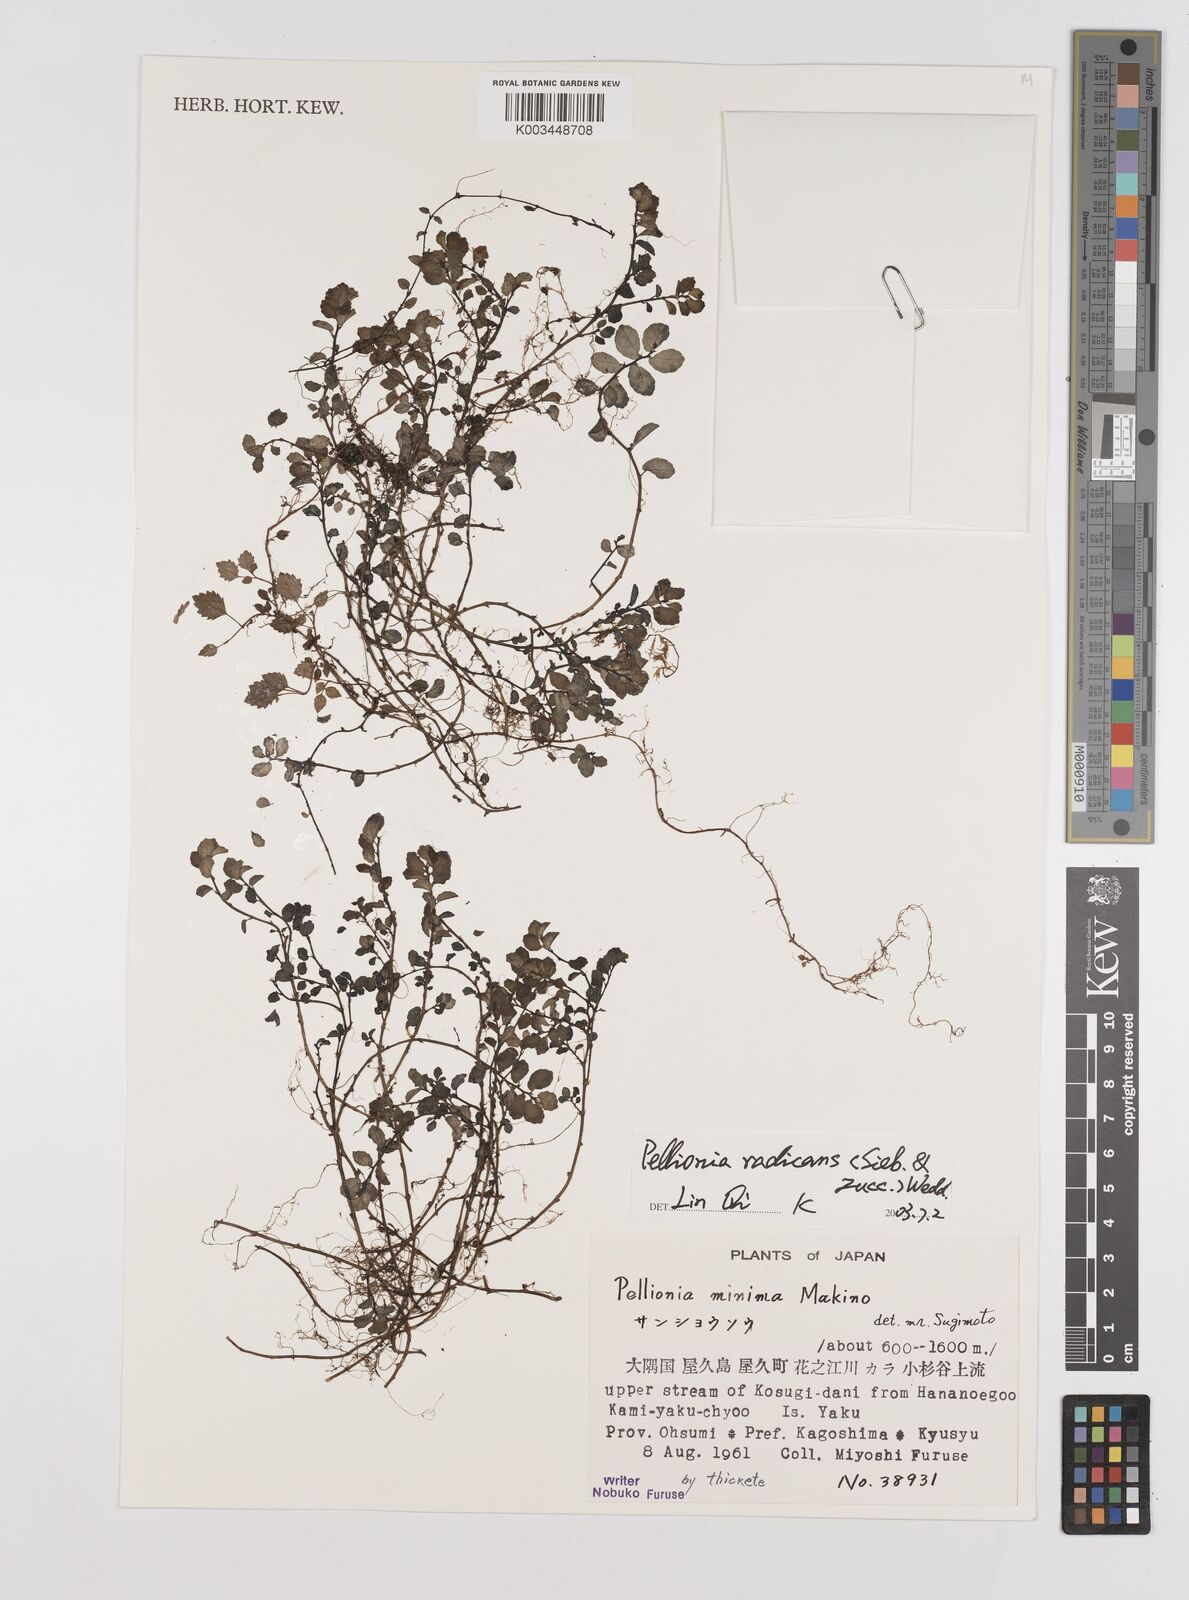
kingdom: Plantae
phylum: Tracheophyta
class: Magnoliopsida
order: Rosales
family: Urticaceae
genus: Elatostema
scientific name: Elatostema radicans
